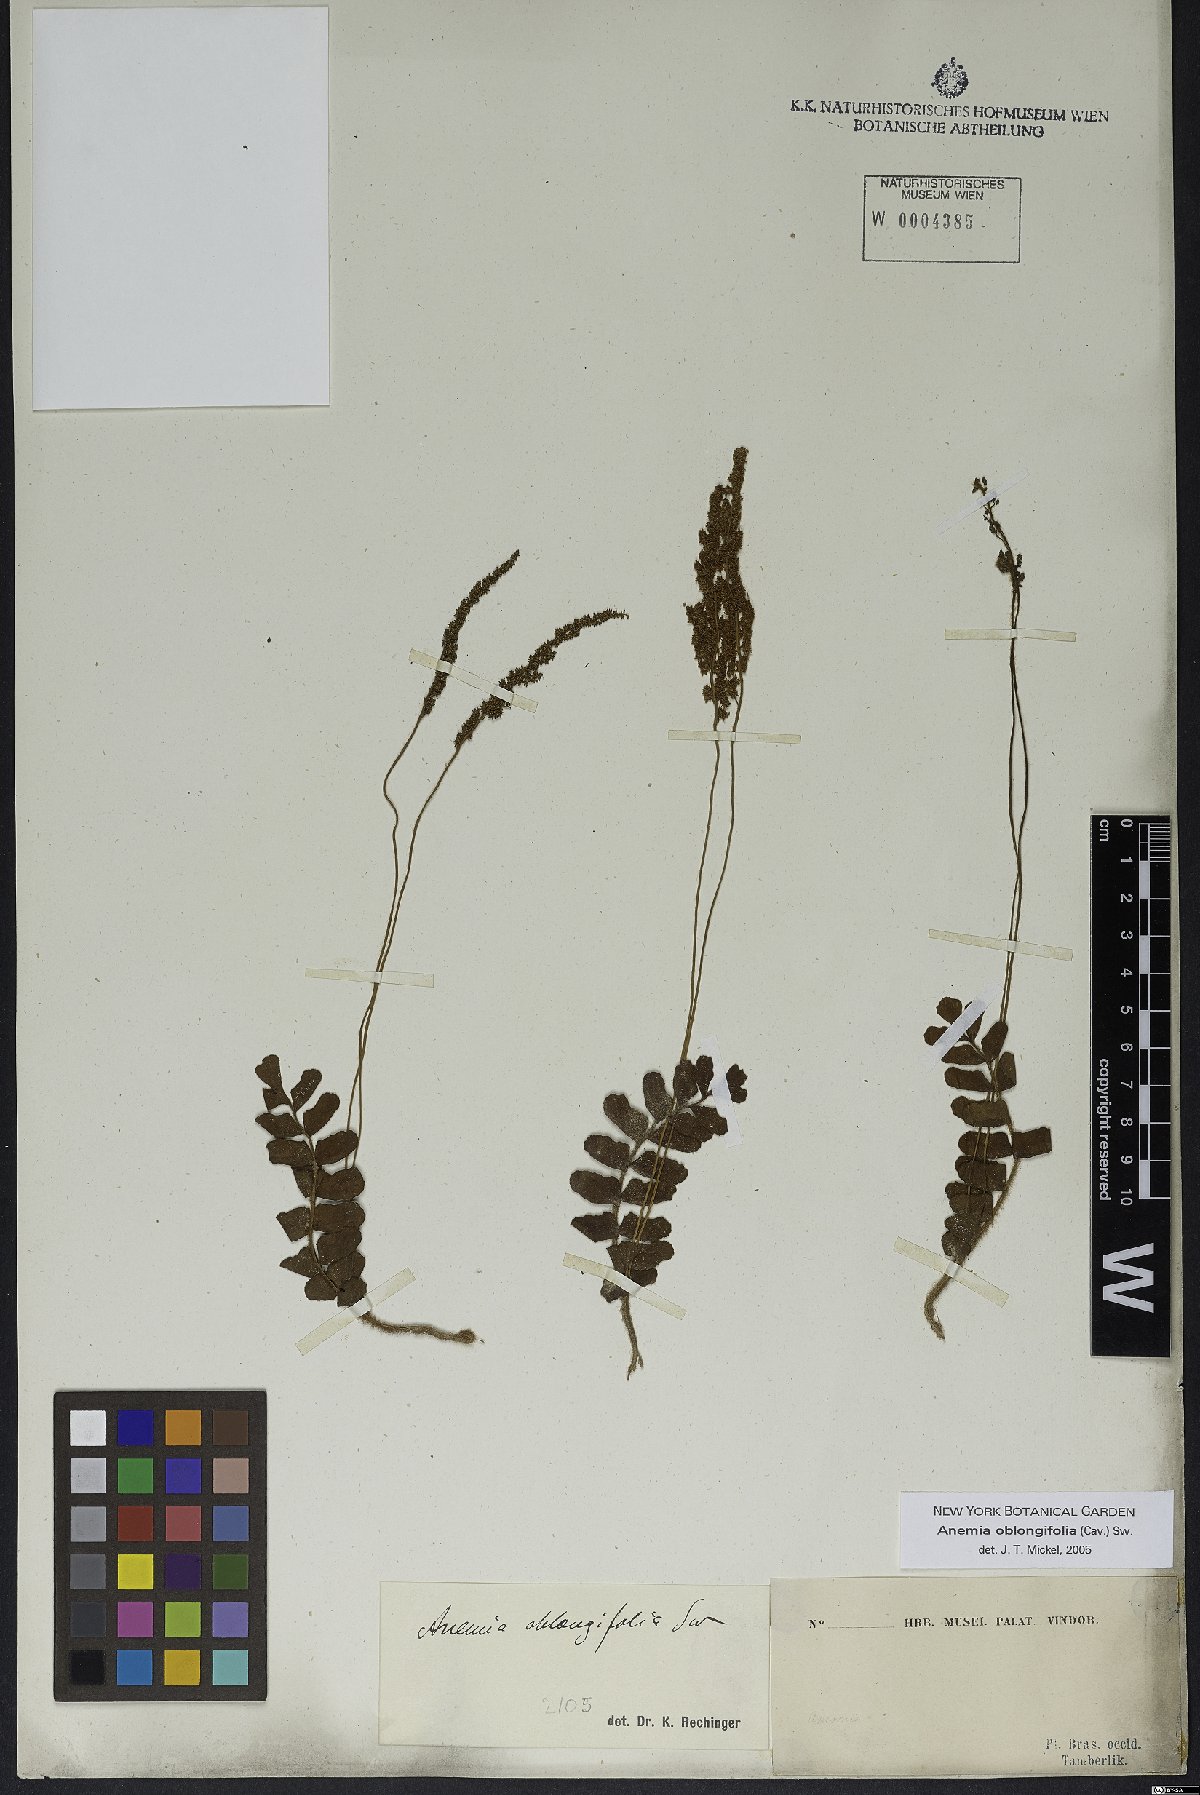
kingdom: Plantae
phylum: Tracheophyta
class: Polypodiopsida
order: Schizaeales
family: Anemiaceae
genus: Anemia
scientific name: Anemia oblongifolia
